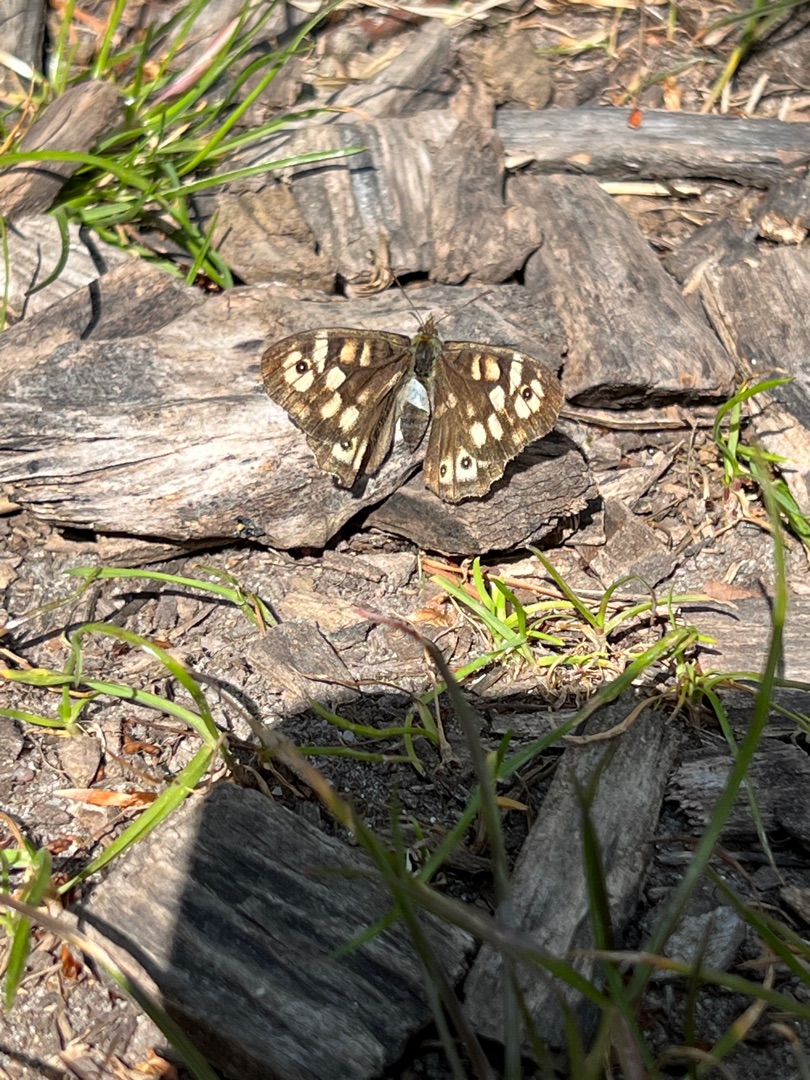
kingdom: Animalia
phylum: Arthropoda
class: Insecta
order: Lepidoptera
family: Nymphalidae
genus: Pararge
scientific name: Pararge aegeria
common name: Skovrandøje
